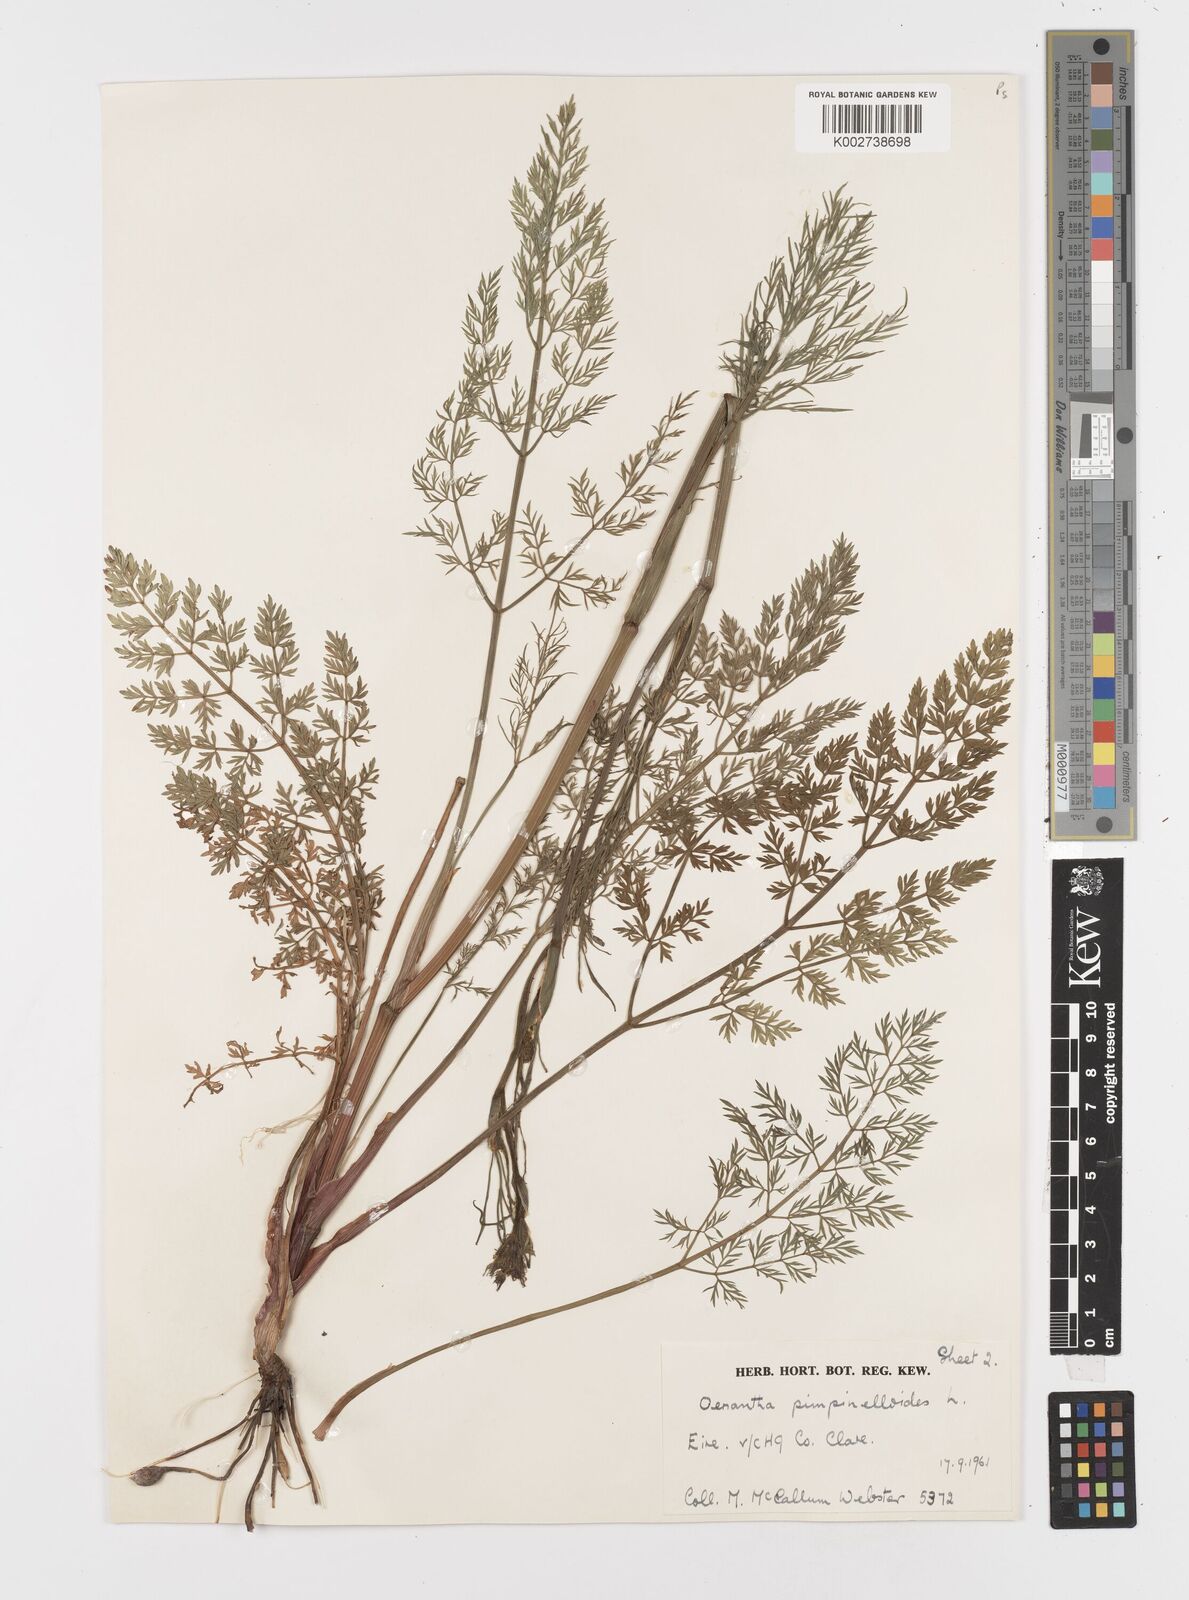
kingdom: Plantae
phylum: Tracheophyta
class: Magnoliopsida
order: Apiales
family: Apiaceae
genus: Oenanthe
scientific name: Oenanthe pimpinelloides
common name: Corky-fruited water-dropwort
